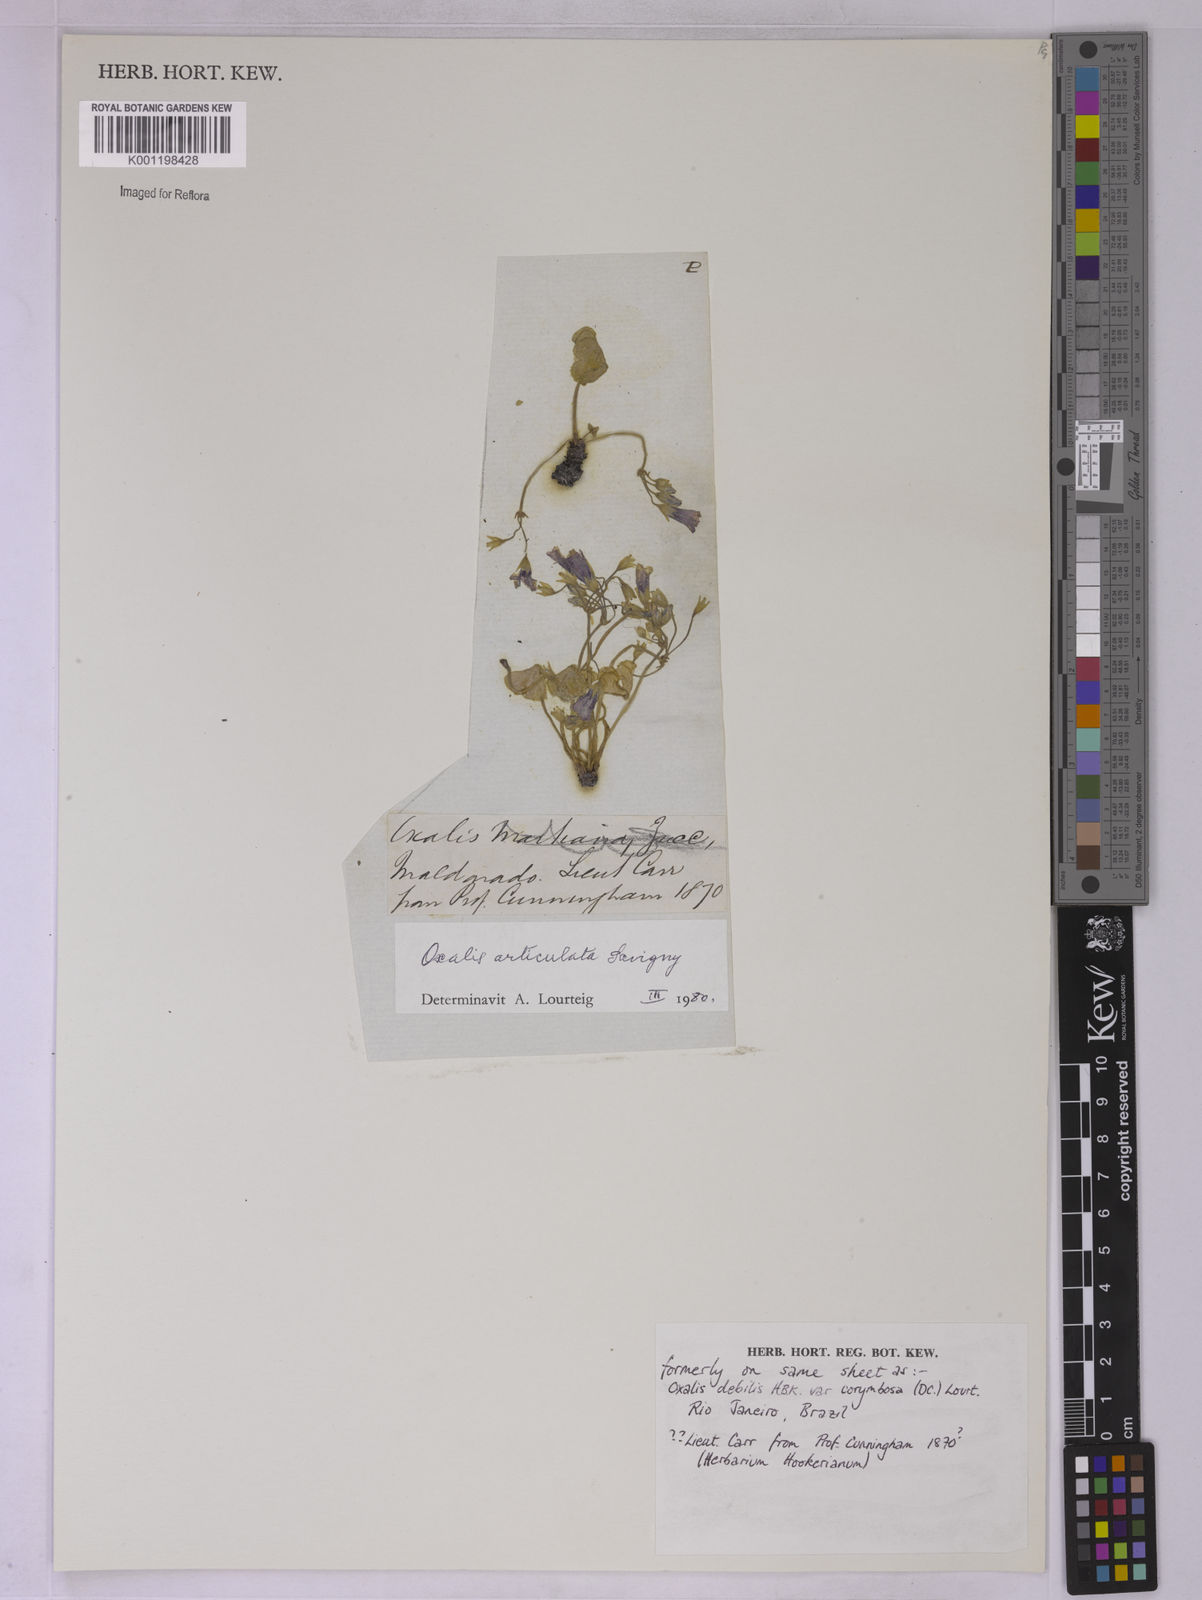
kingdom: Plantae
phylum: Tracheophyta
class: Magnoliopsida
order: Oxalidales
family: Oxalidaceae
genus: Oxalis
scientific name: Oxalis articulata
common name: Pink-sorrel
